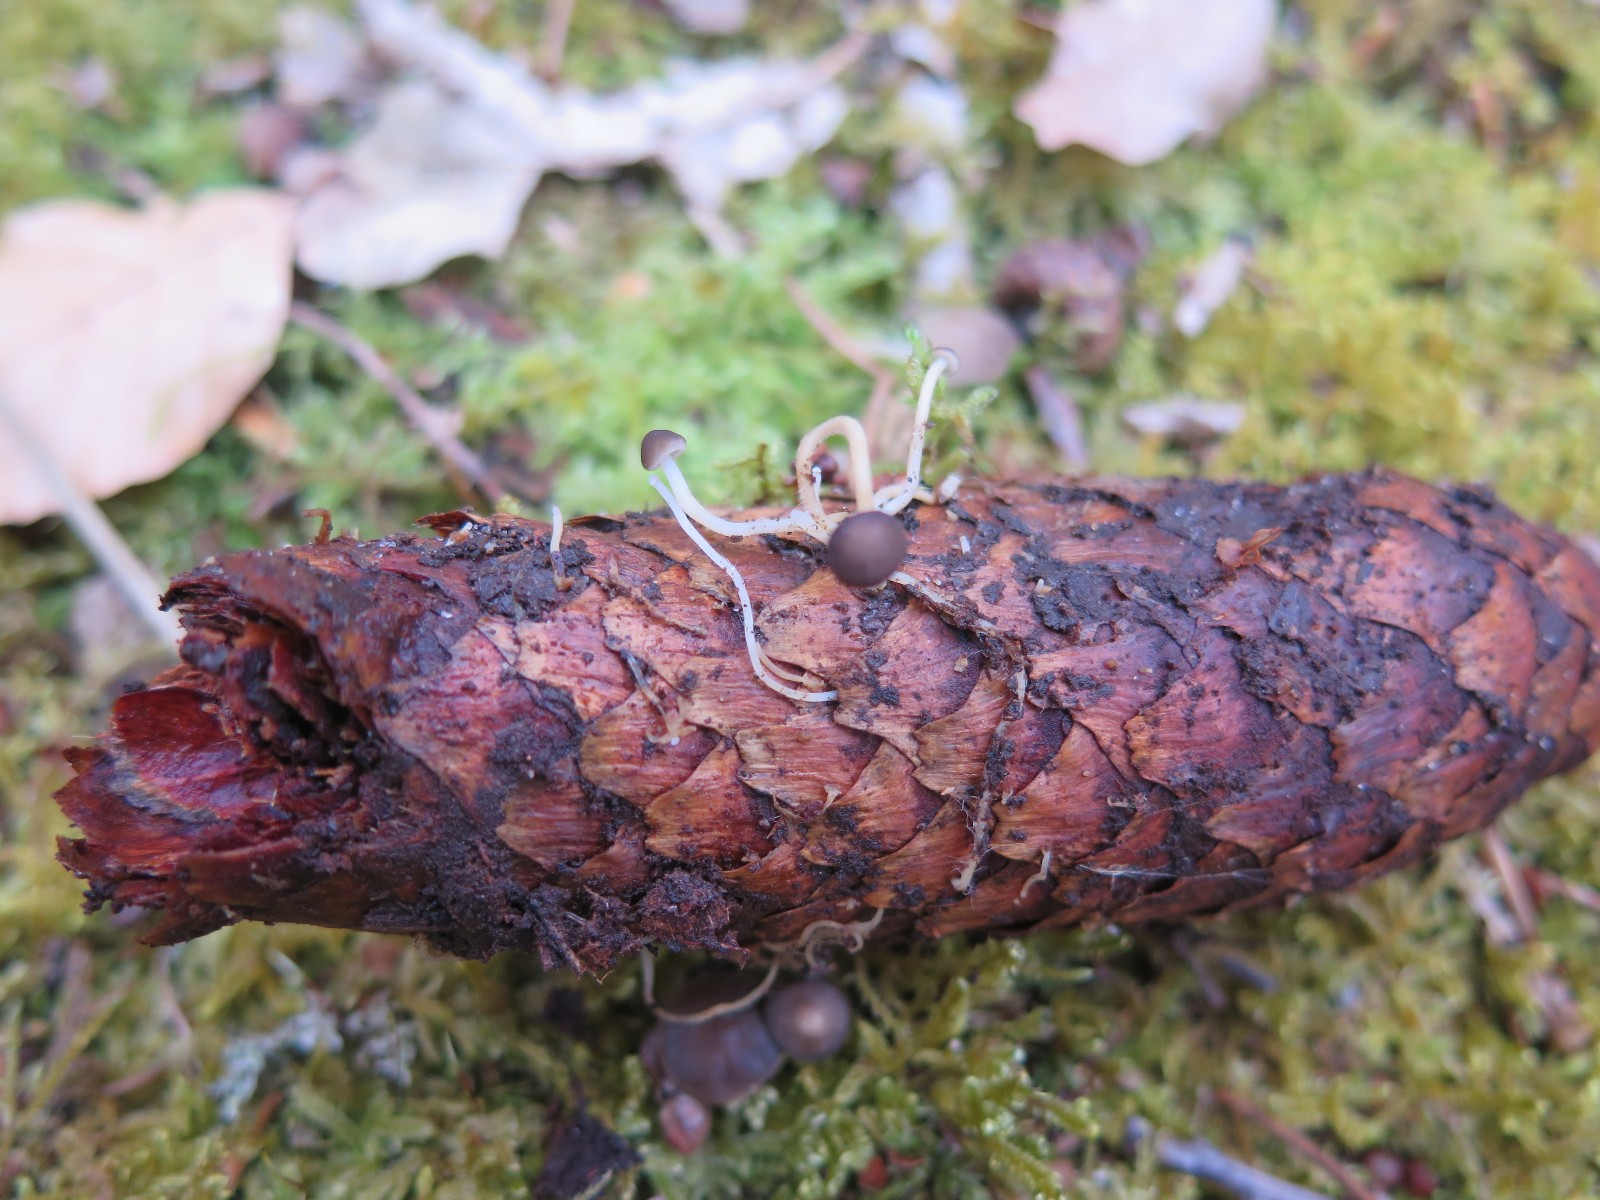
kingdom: Fungi
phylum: Basidiomycota
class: Agaricomycetes
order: Agaricales
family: Physalacriaceae
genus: Strobilurus
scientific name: Strobilurus esculentus
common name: gran-koglehat
